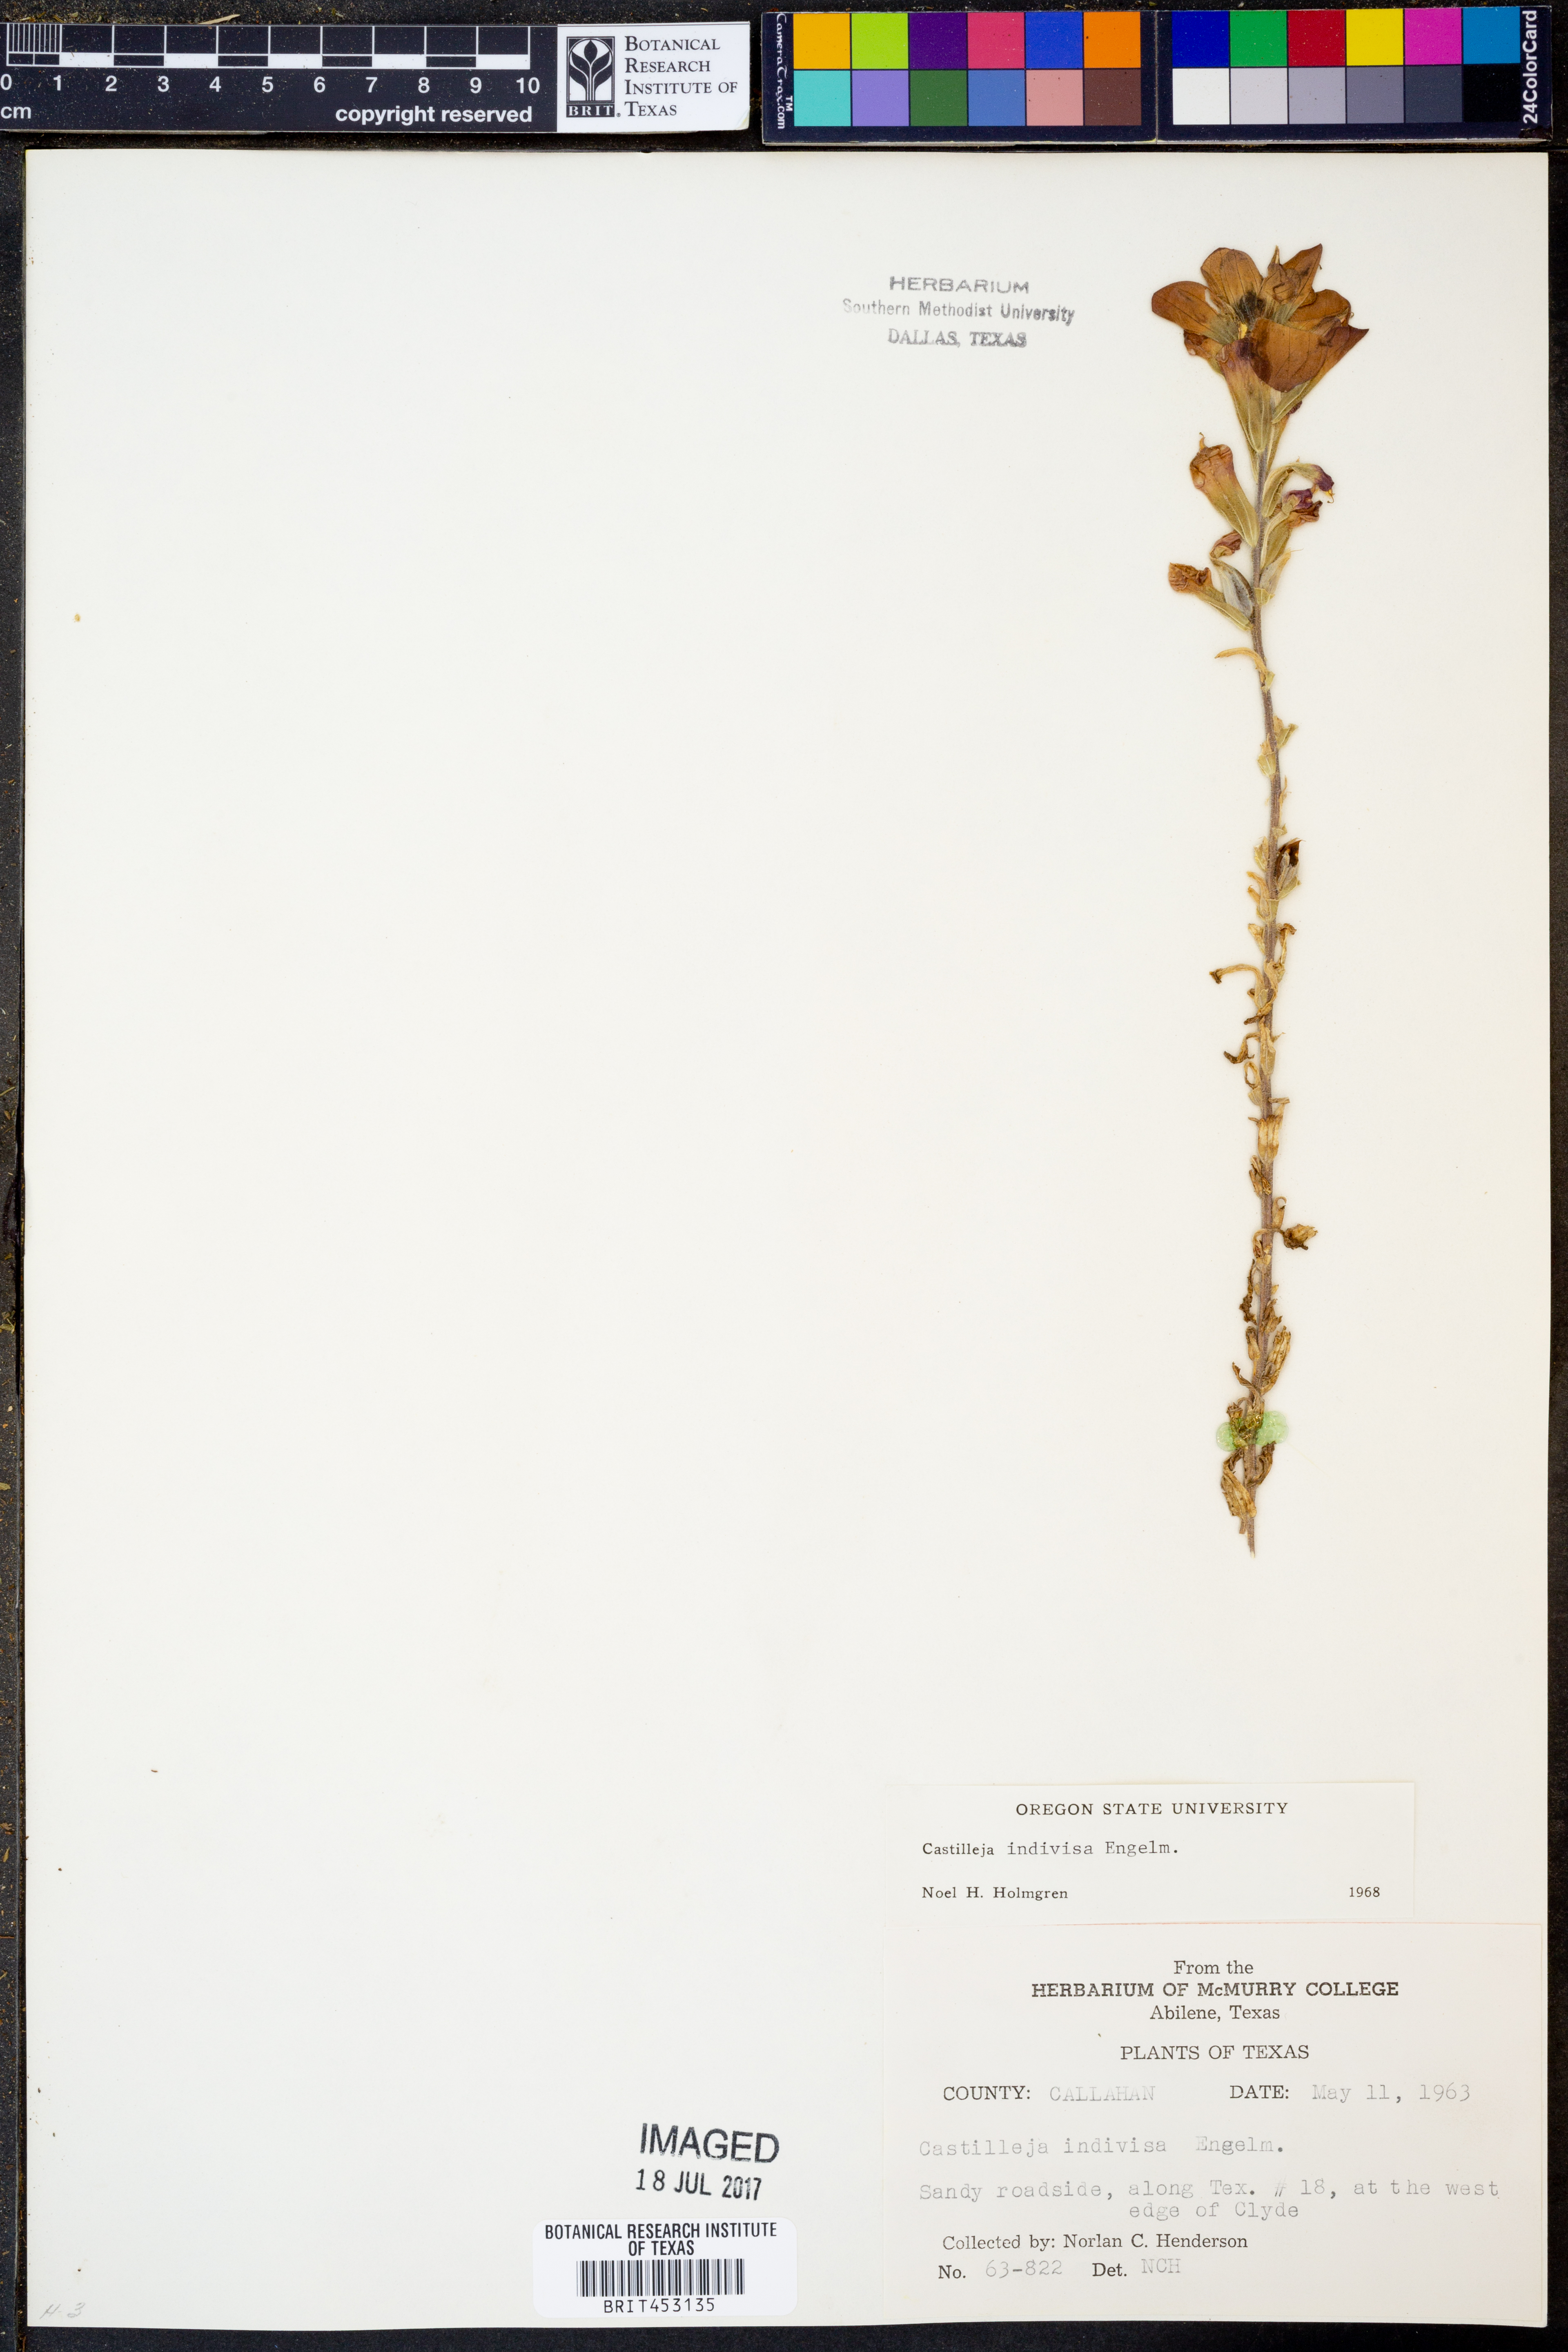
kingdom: Plantae
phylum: Tracheophyta
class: Magnoliopsida
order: Lamiales
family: Orobanchaceae
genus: Castilleja
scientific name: Castilleja indivisa
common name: Texas paintbrush
